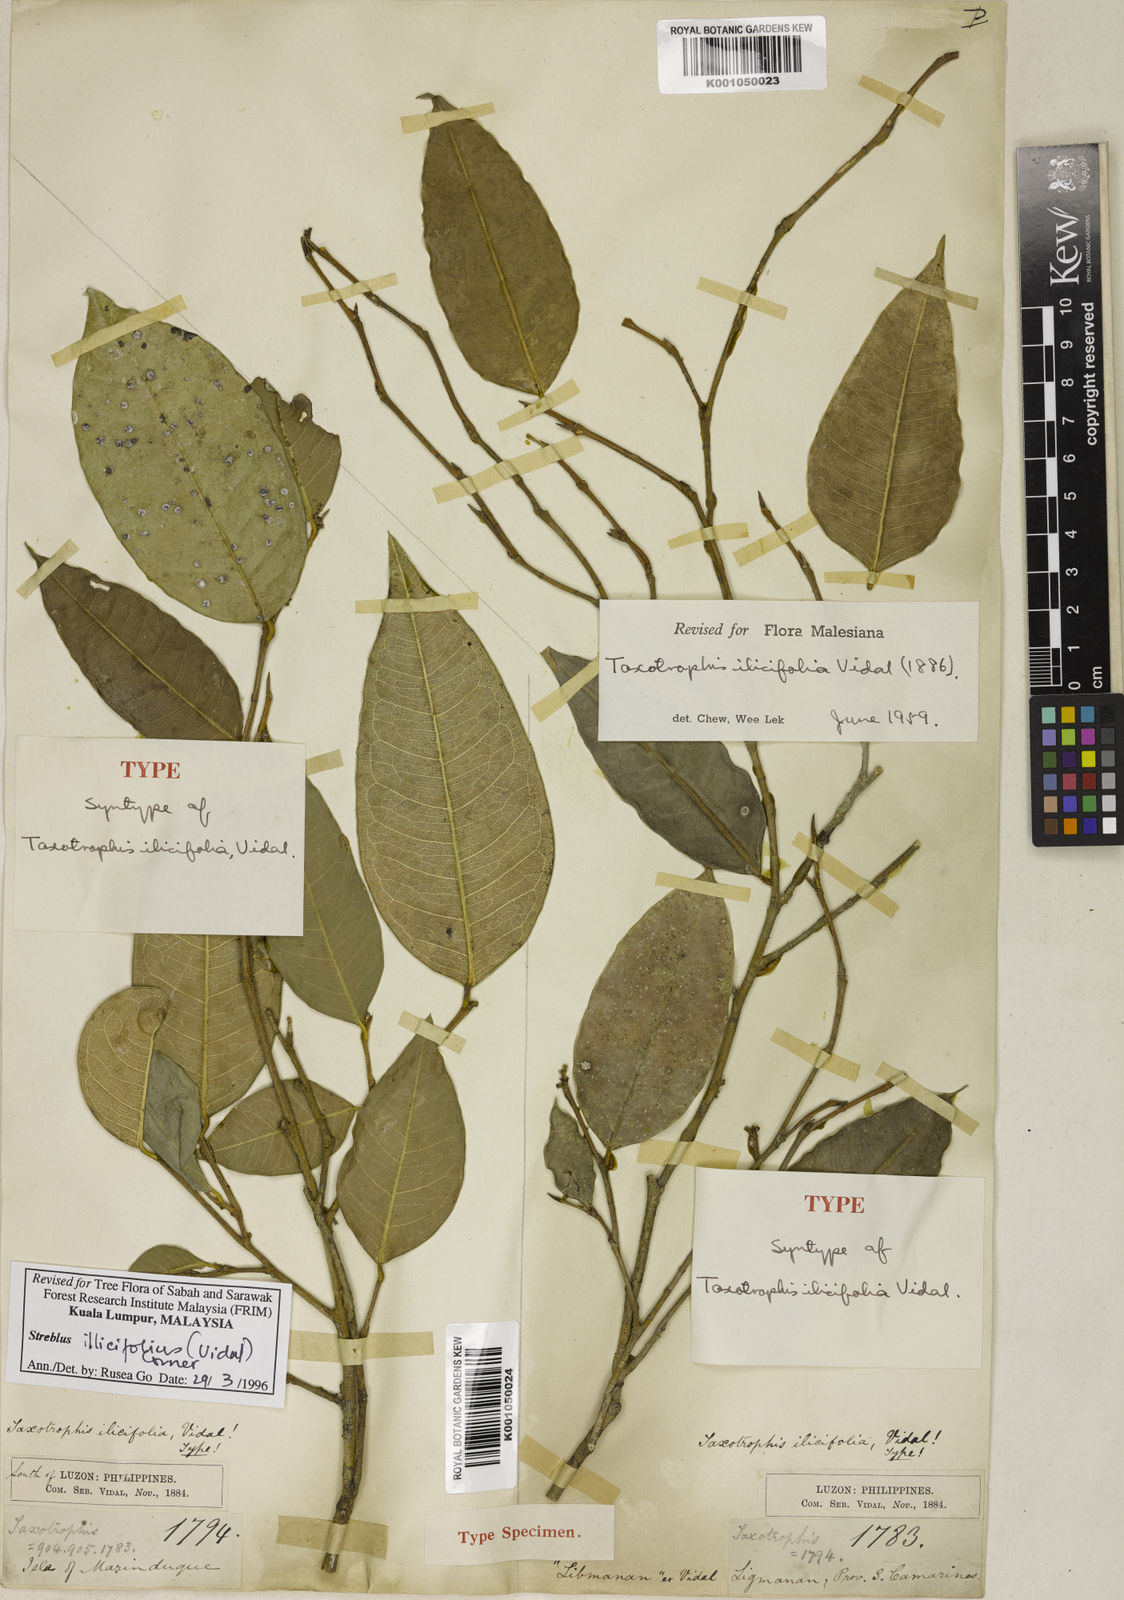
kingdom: Plantae
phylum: Tracheophyta
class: Magnoliopsida
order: Rosales
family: Moraceae
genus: Taxotrophis
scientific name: Taxotrophis ilicifolia
